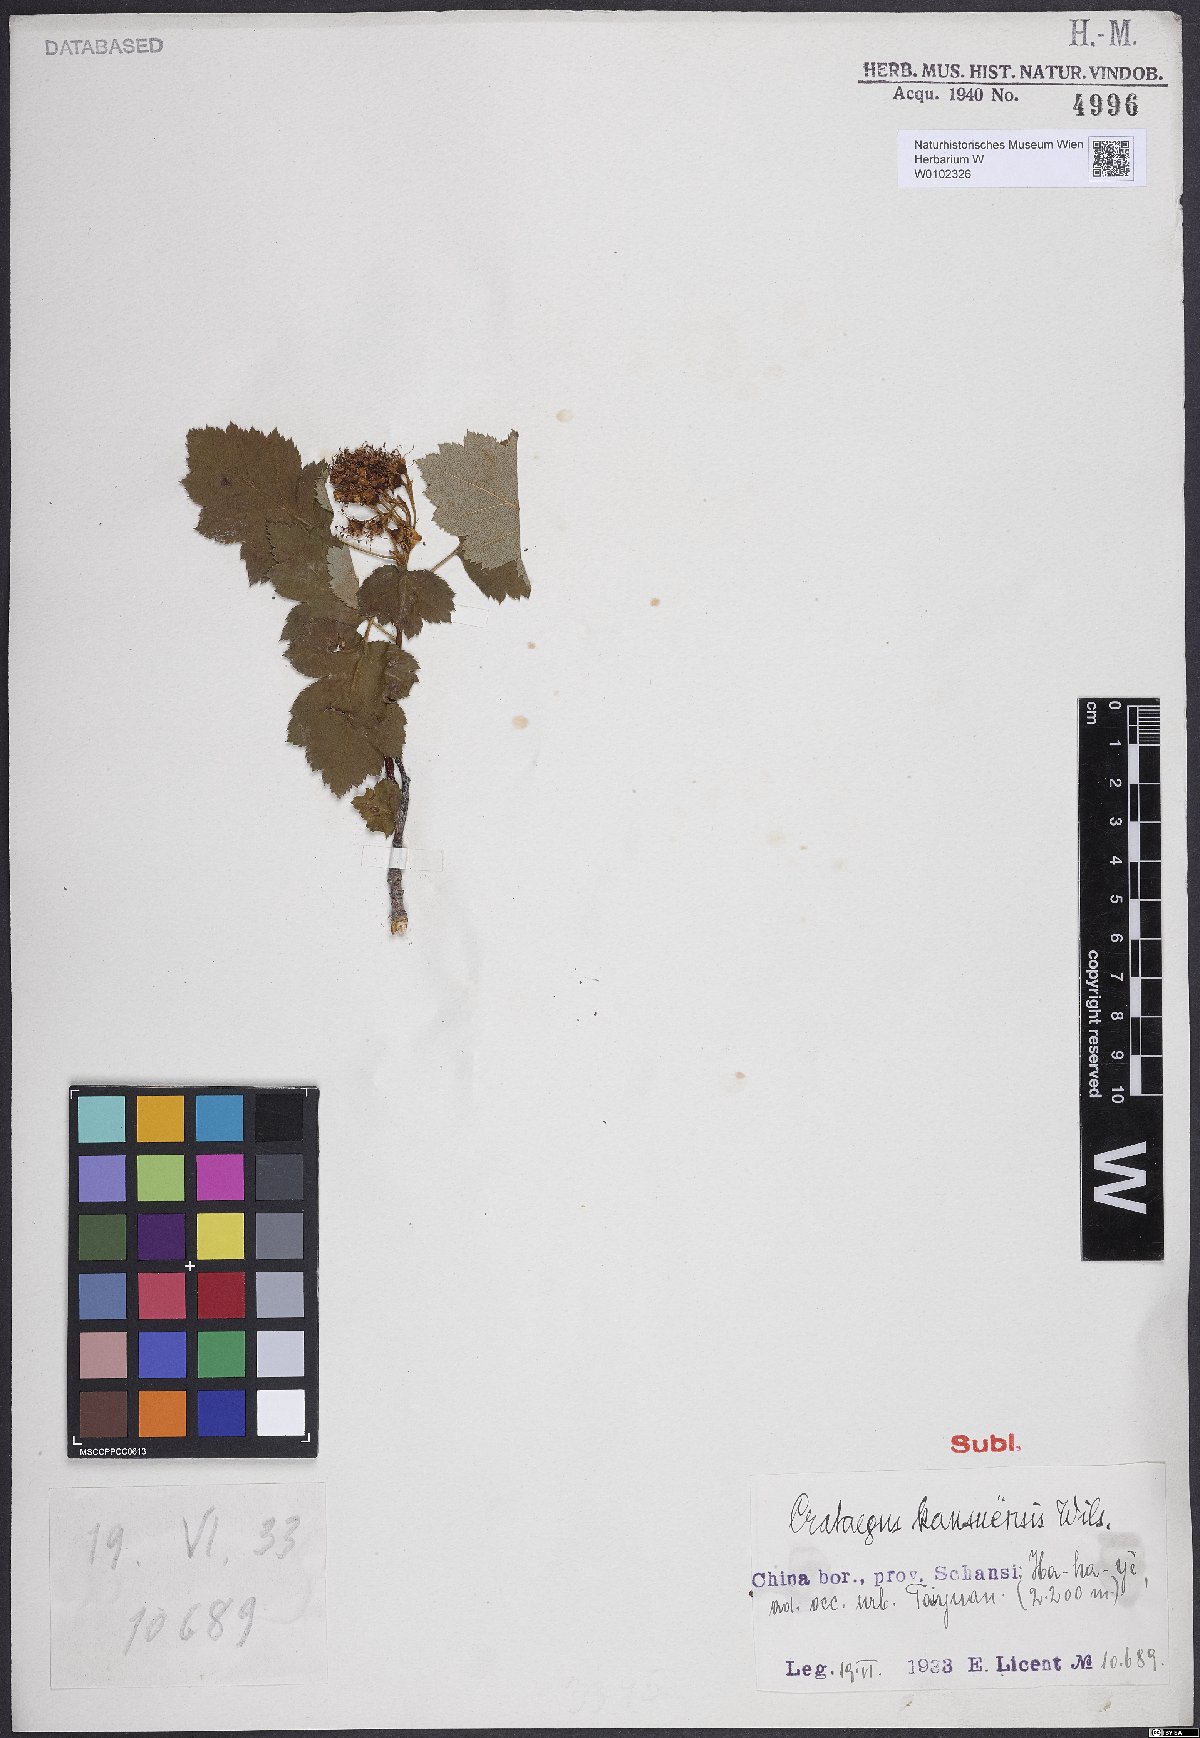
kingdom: Plantae
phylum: Tracheophyta
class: Magnoliopsida
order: Rosales
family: Rosaceae
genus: Crataegus
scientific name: Crataegus kansuensis
